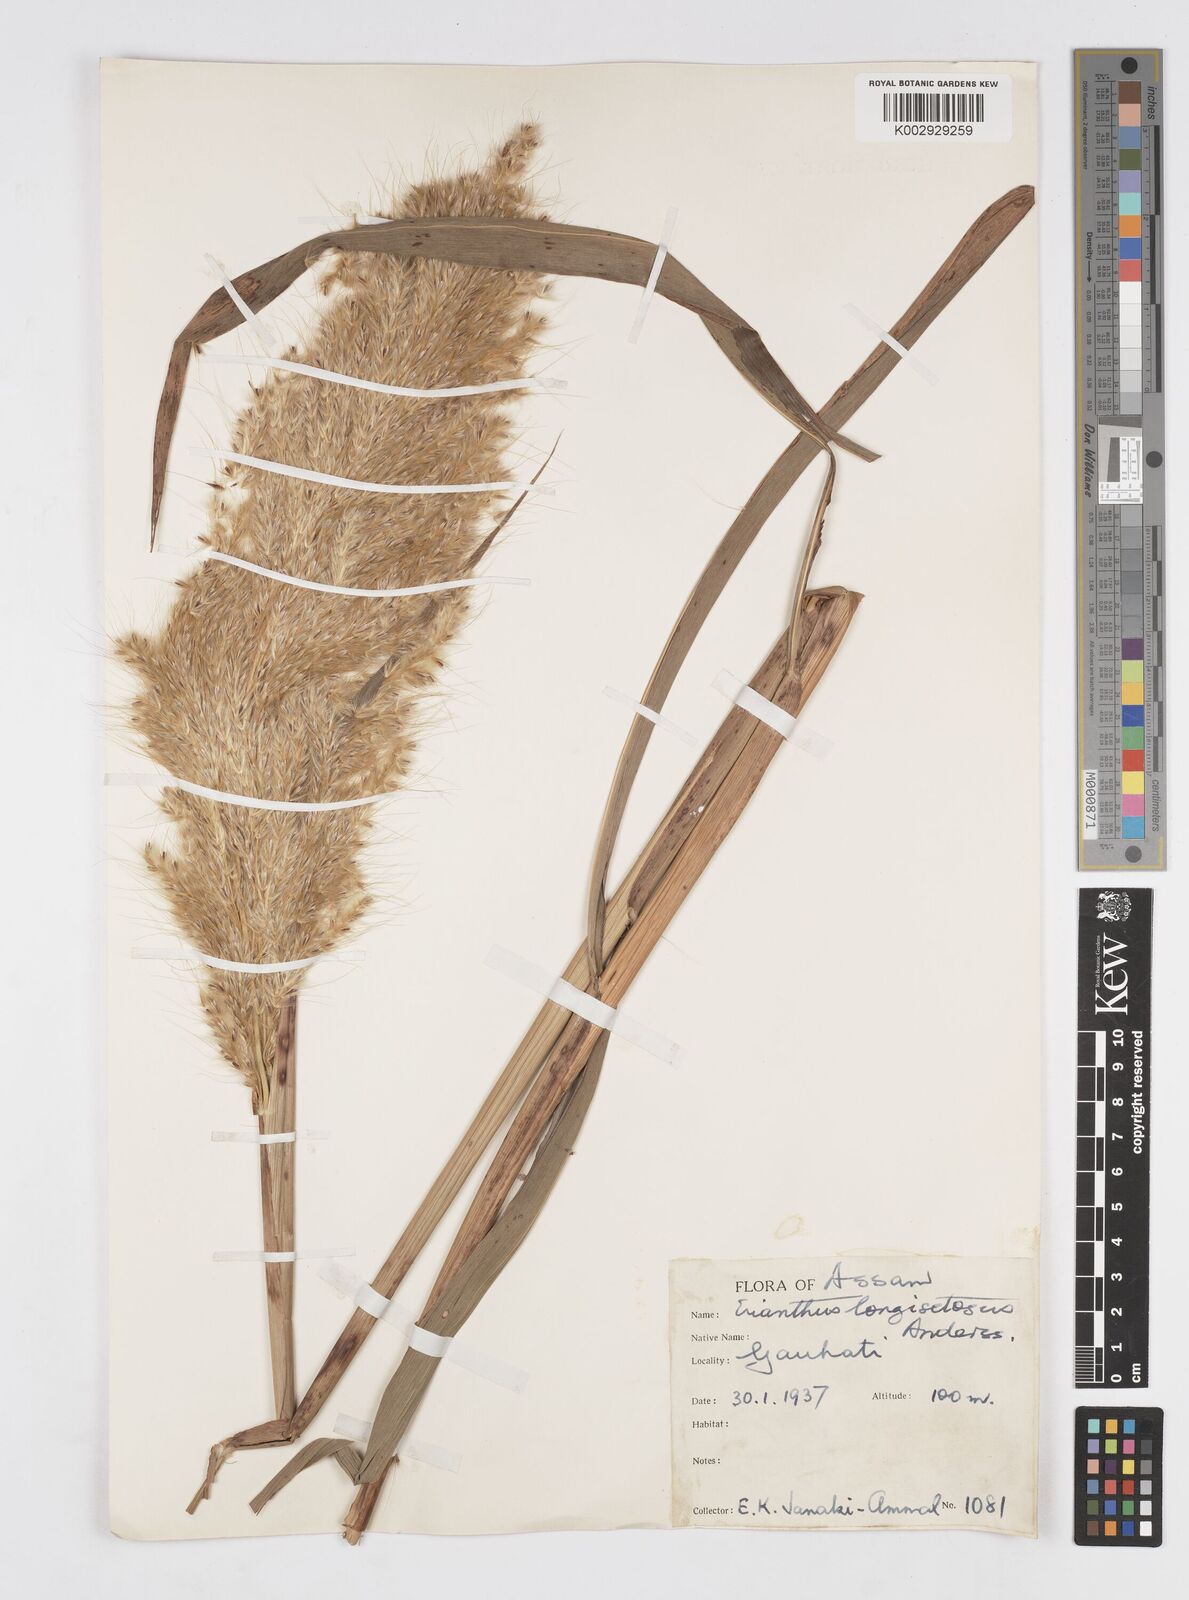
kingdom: Plantae
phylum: Tracheophyta
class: Liliopsida
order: Poales
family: Poaceae
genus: Saccharum
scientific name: Saccharum
